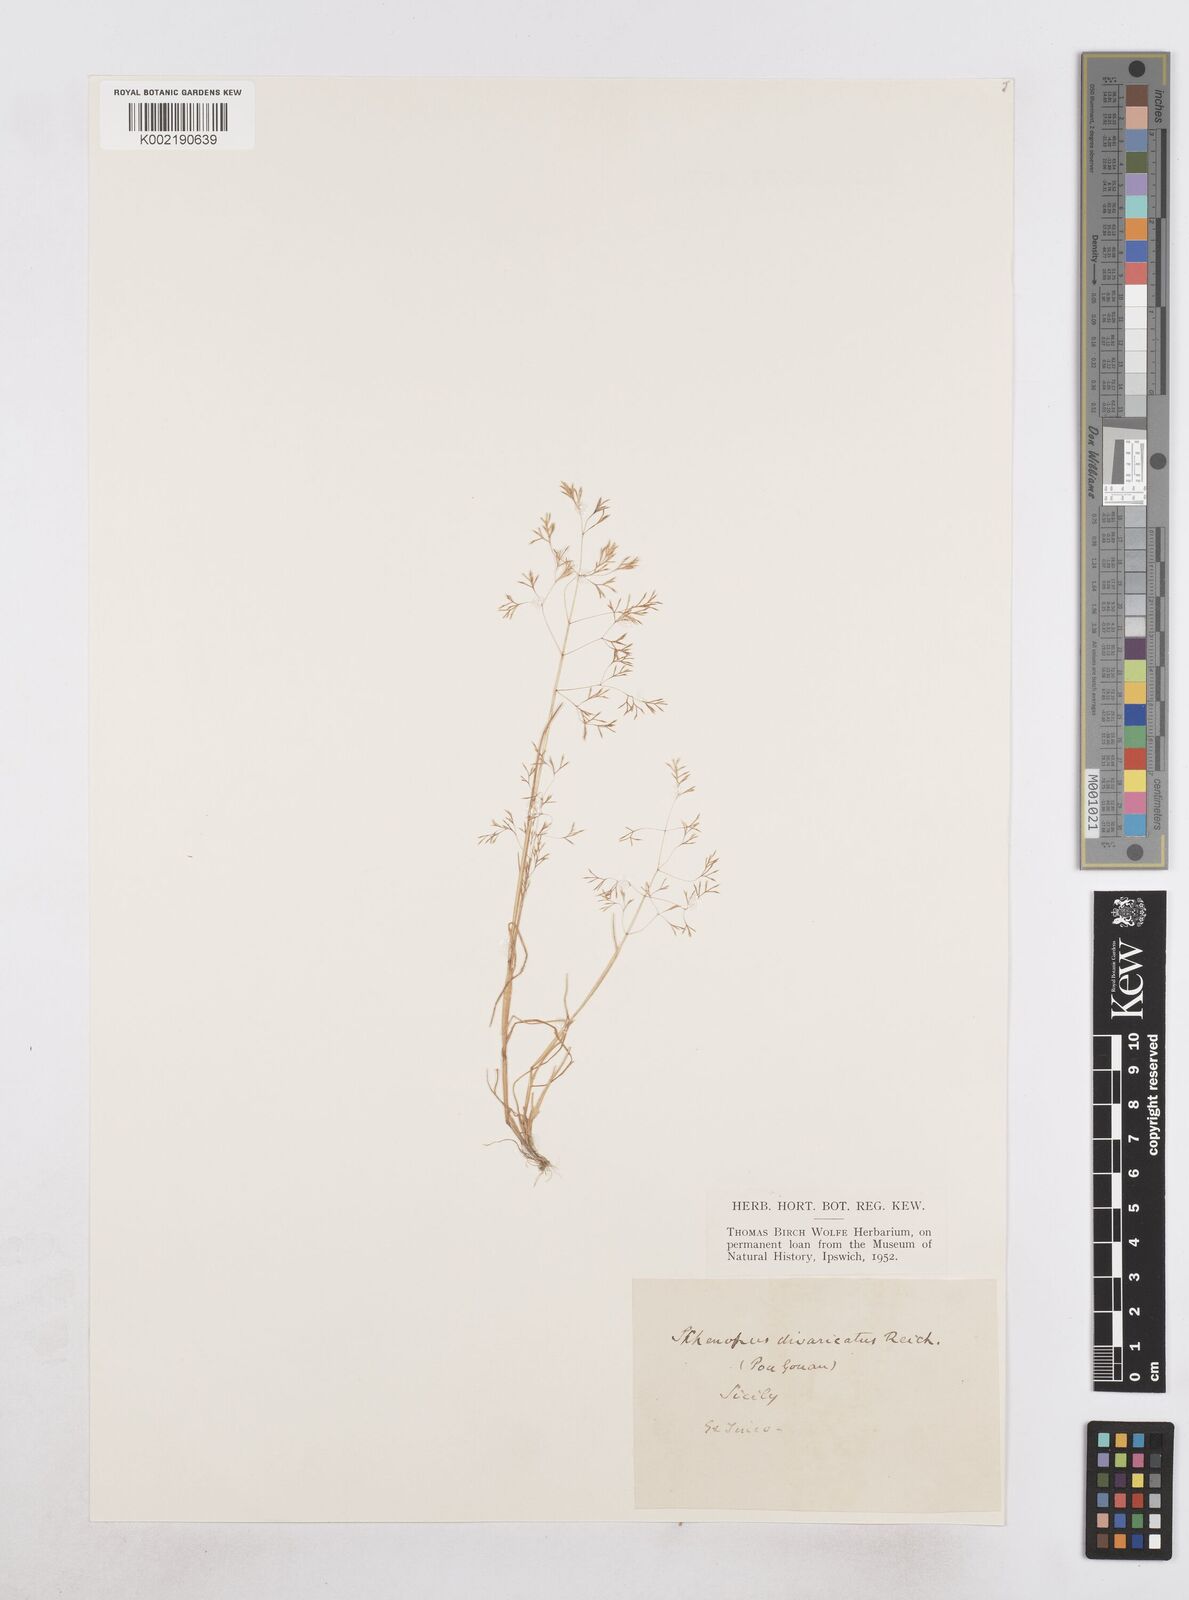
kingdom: Plantae
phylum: Tracheophyta
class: Liliopsida
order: Poales
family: Poaceae
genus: Sphenopus
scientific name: Sphenopus divaricatus
